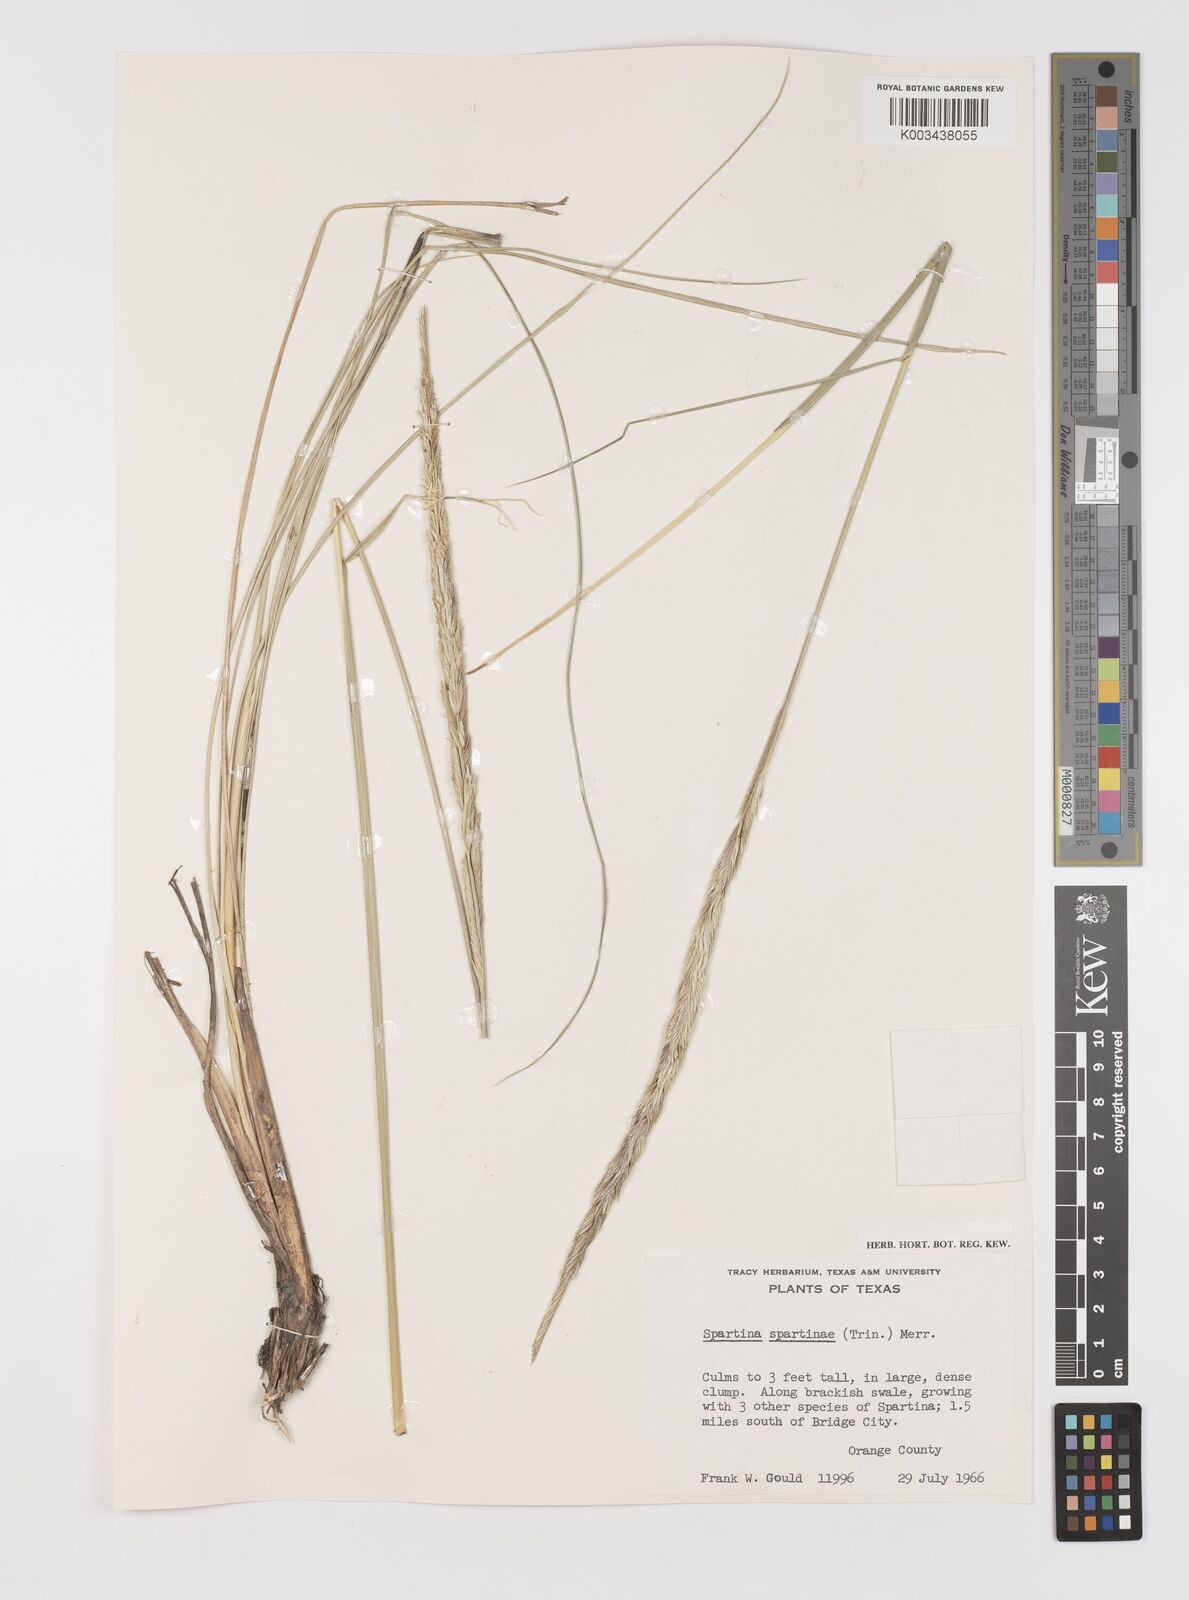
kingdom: Plantae
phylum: Tracheophyta
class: Liliopsida
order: Poales
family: Poaceae
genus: Sporobolus
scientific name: Sporobolus spartinae
